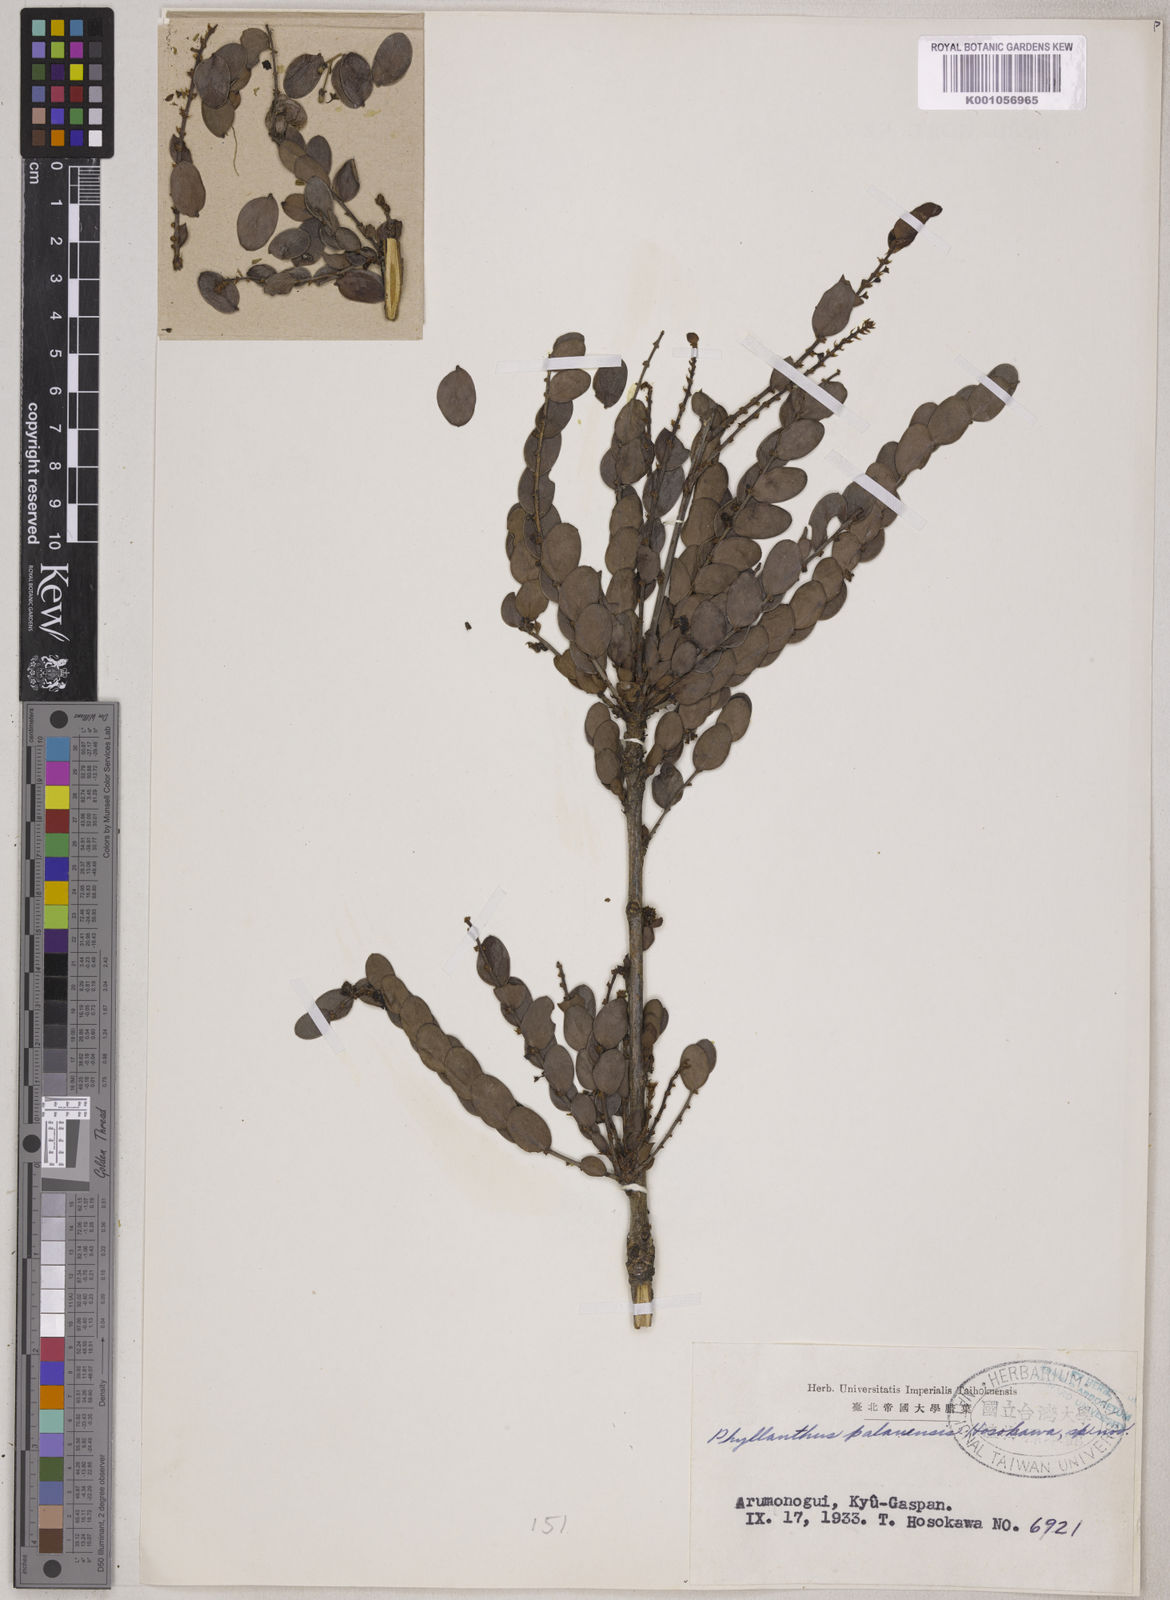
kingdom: Plantae
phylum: Tracheophyta
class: Magnoliopsida
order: Malpighiales
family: Phyllanthaceae
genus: Phyllanthus
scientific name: Phyllanthus palauensis
